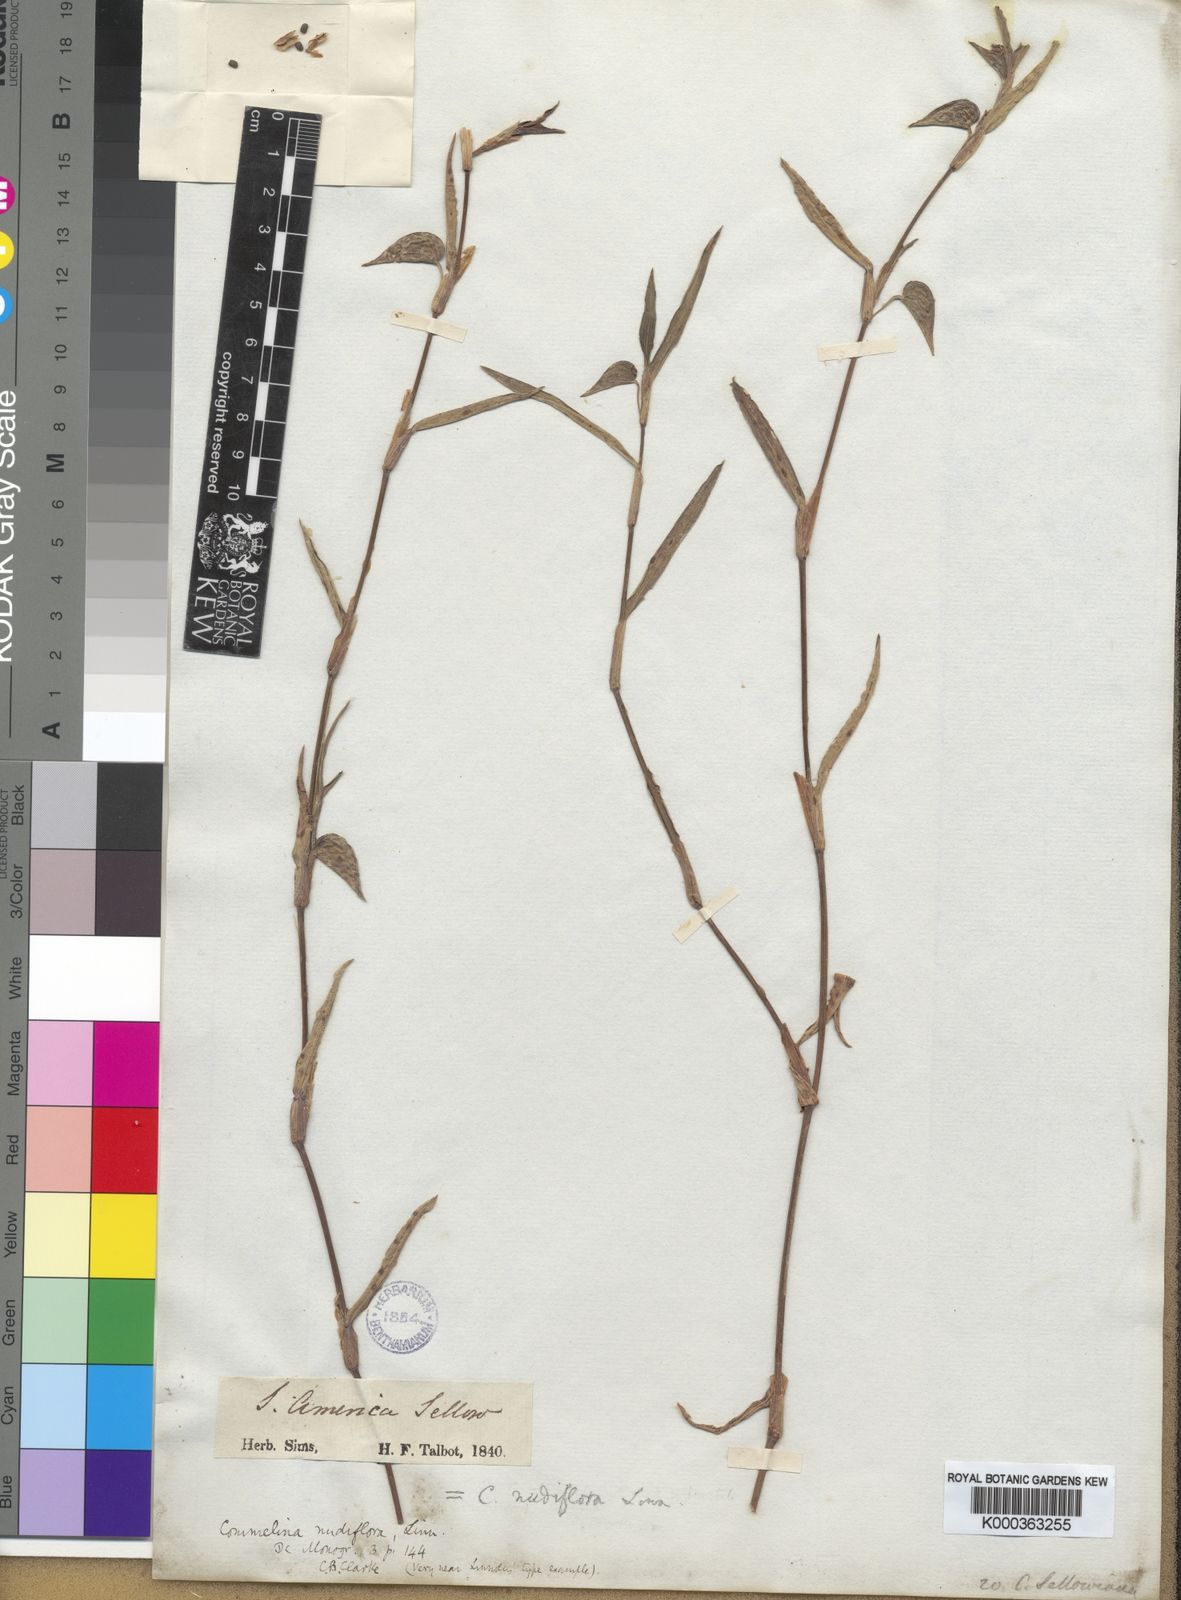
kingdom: Plantae
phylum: Tracheophyta
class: Liliopsida
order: Commelinales
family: Commelinaceae
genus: Commelina
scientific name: Commelina diffusa
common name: Climbing dayflower
